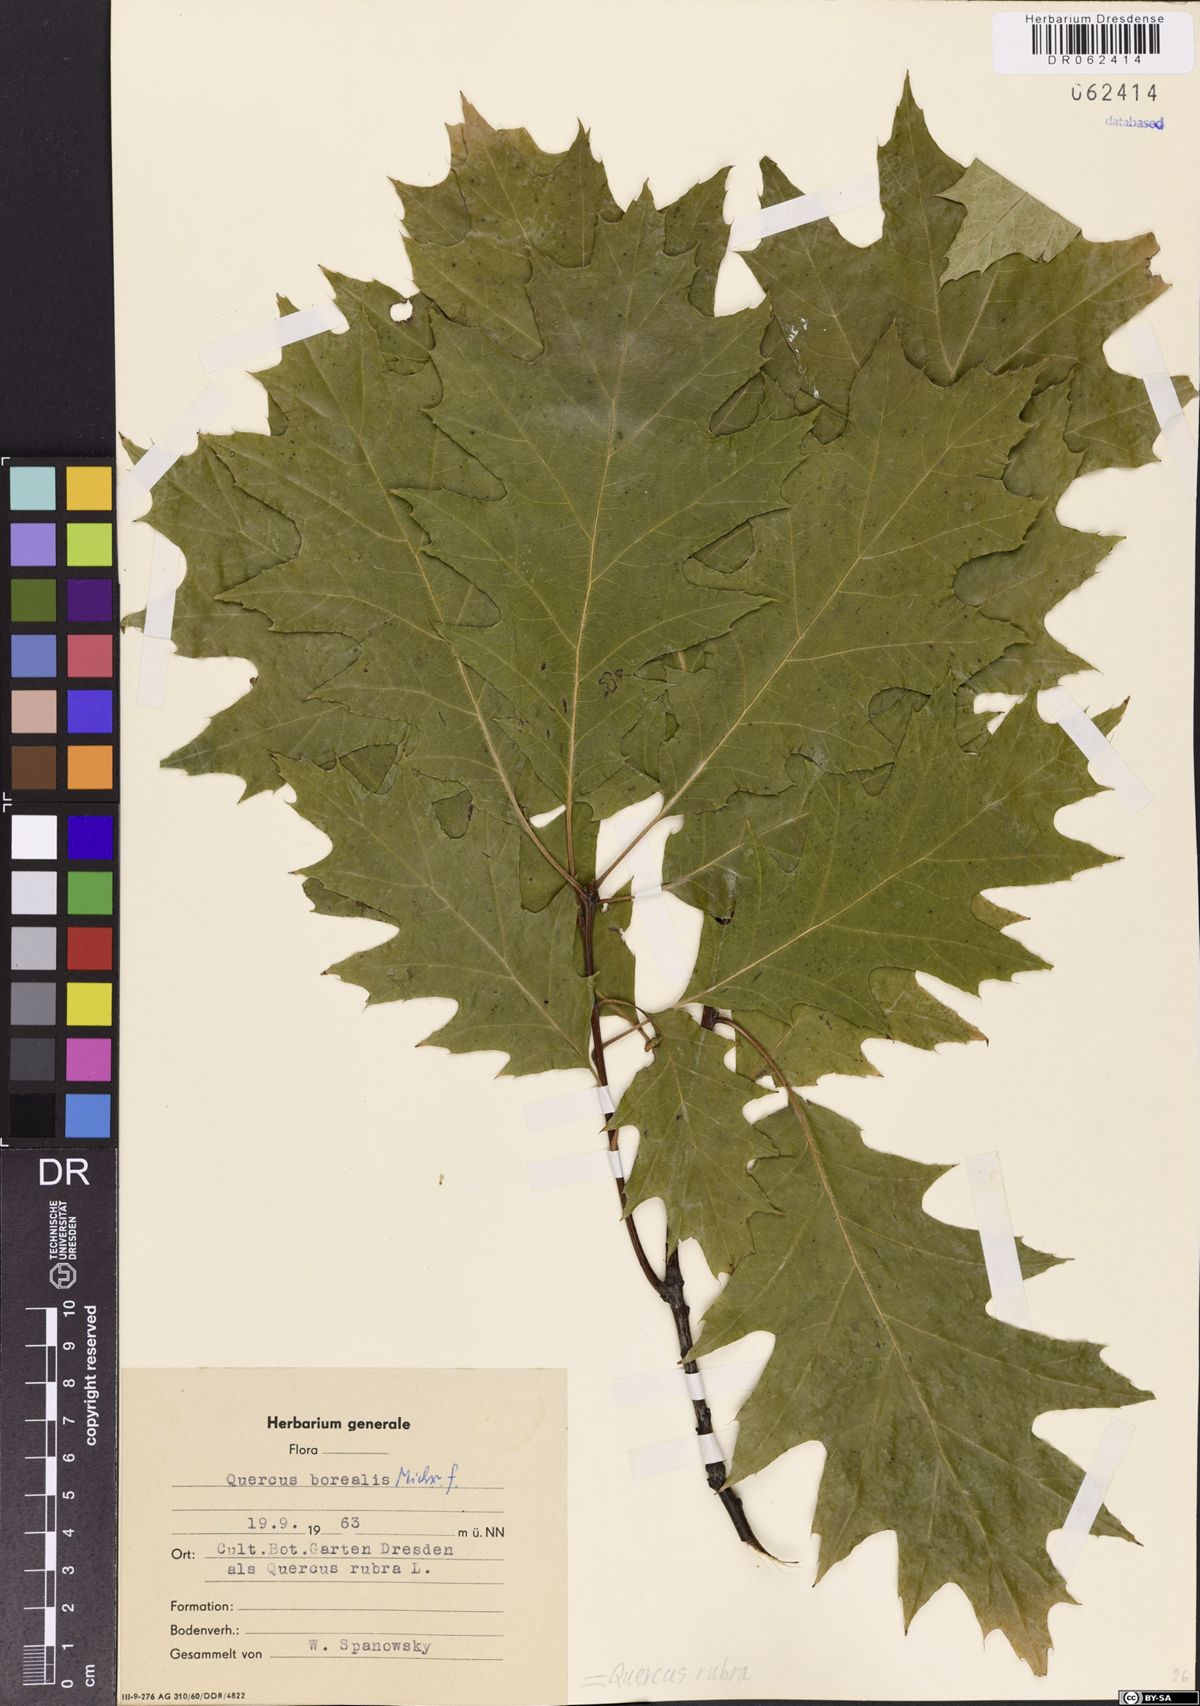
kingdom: Plantae
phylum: Tracheophyta
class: Magnoliopsida
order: Fagales
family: Fagaceae
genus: Quercus
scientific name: Quercus rubra
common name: Red oak
